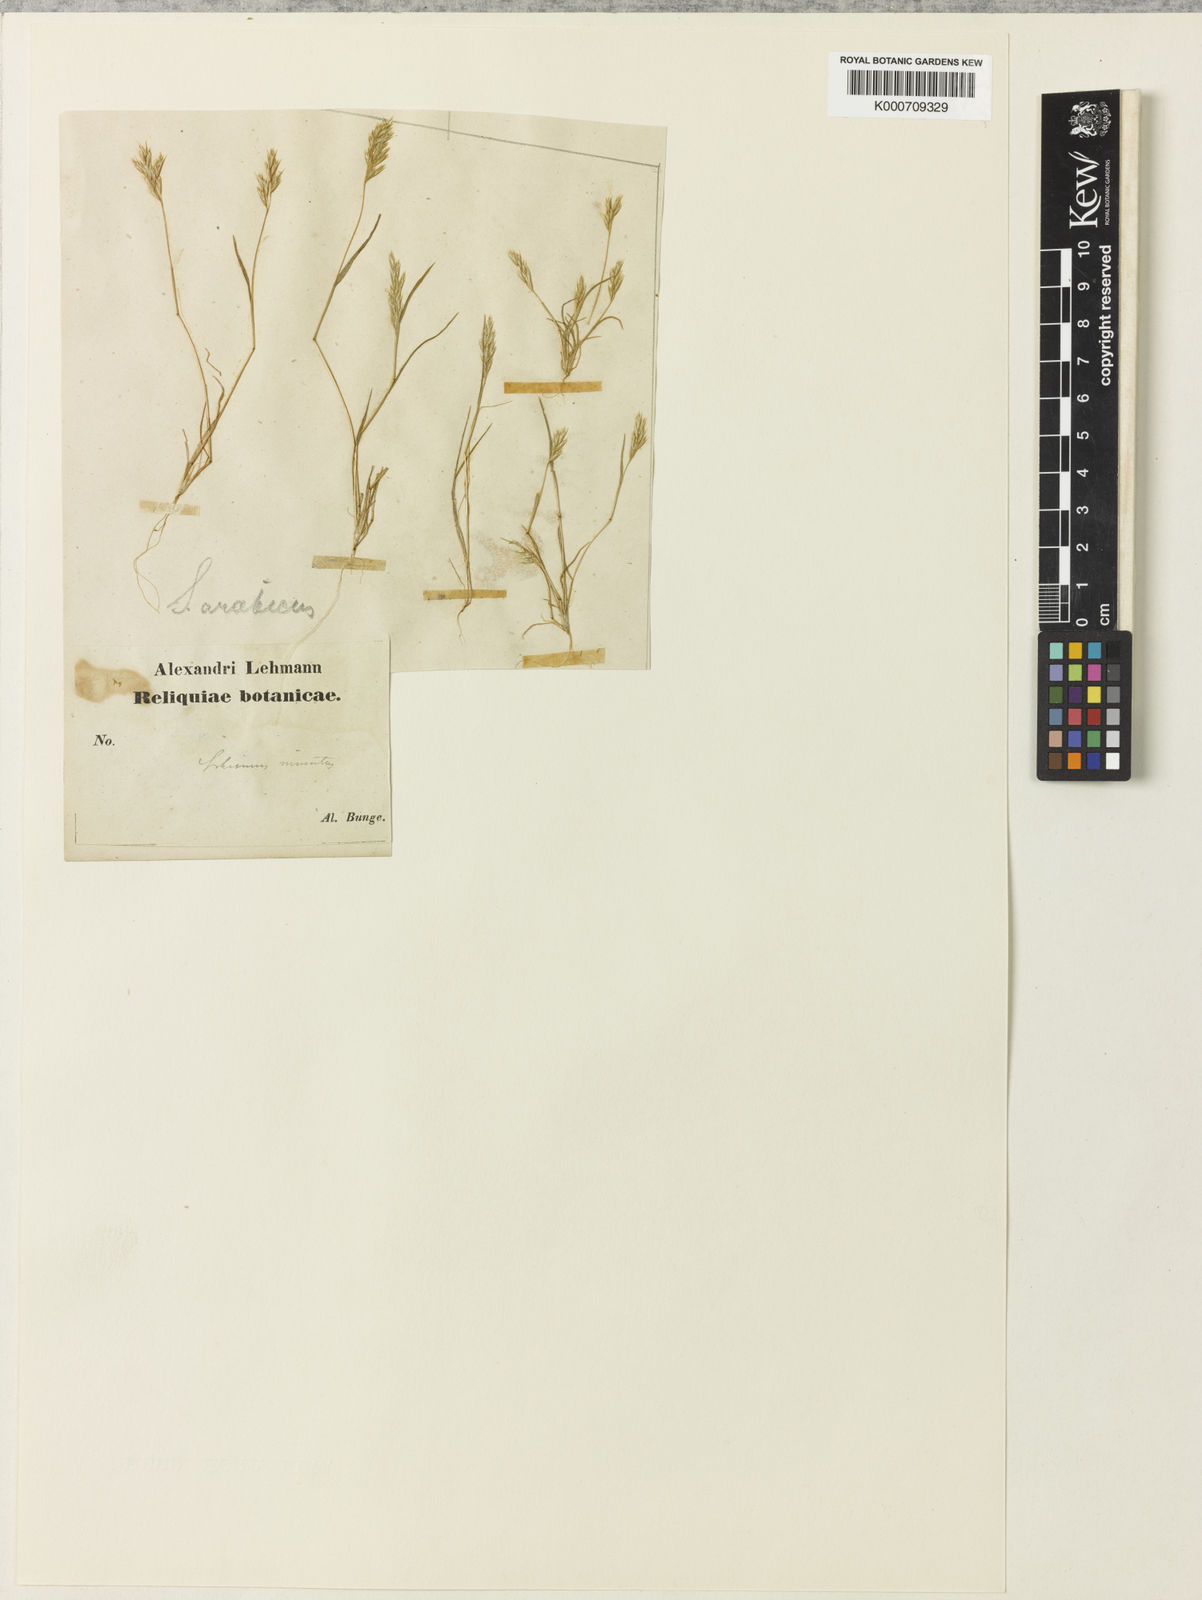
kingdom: Plantae
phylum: Tracheophyta
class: Liliopsida
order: Poales
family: Poaceae
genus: Schismus
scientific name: Schismus arabicus
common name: Arabian schismus
